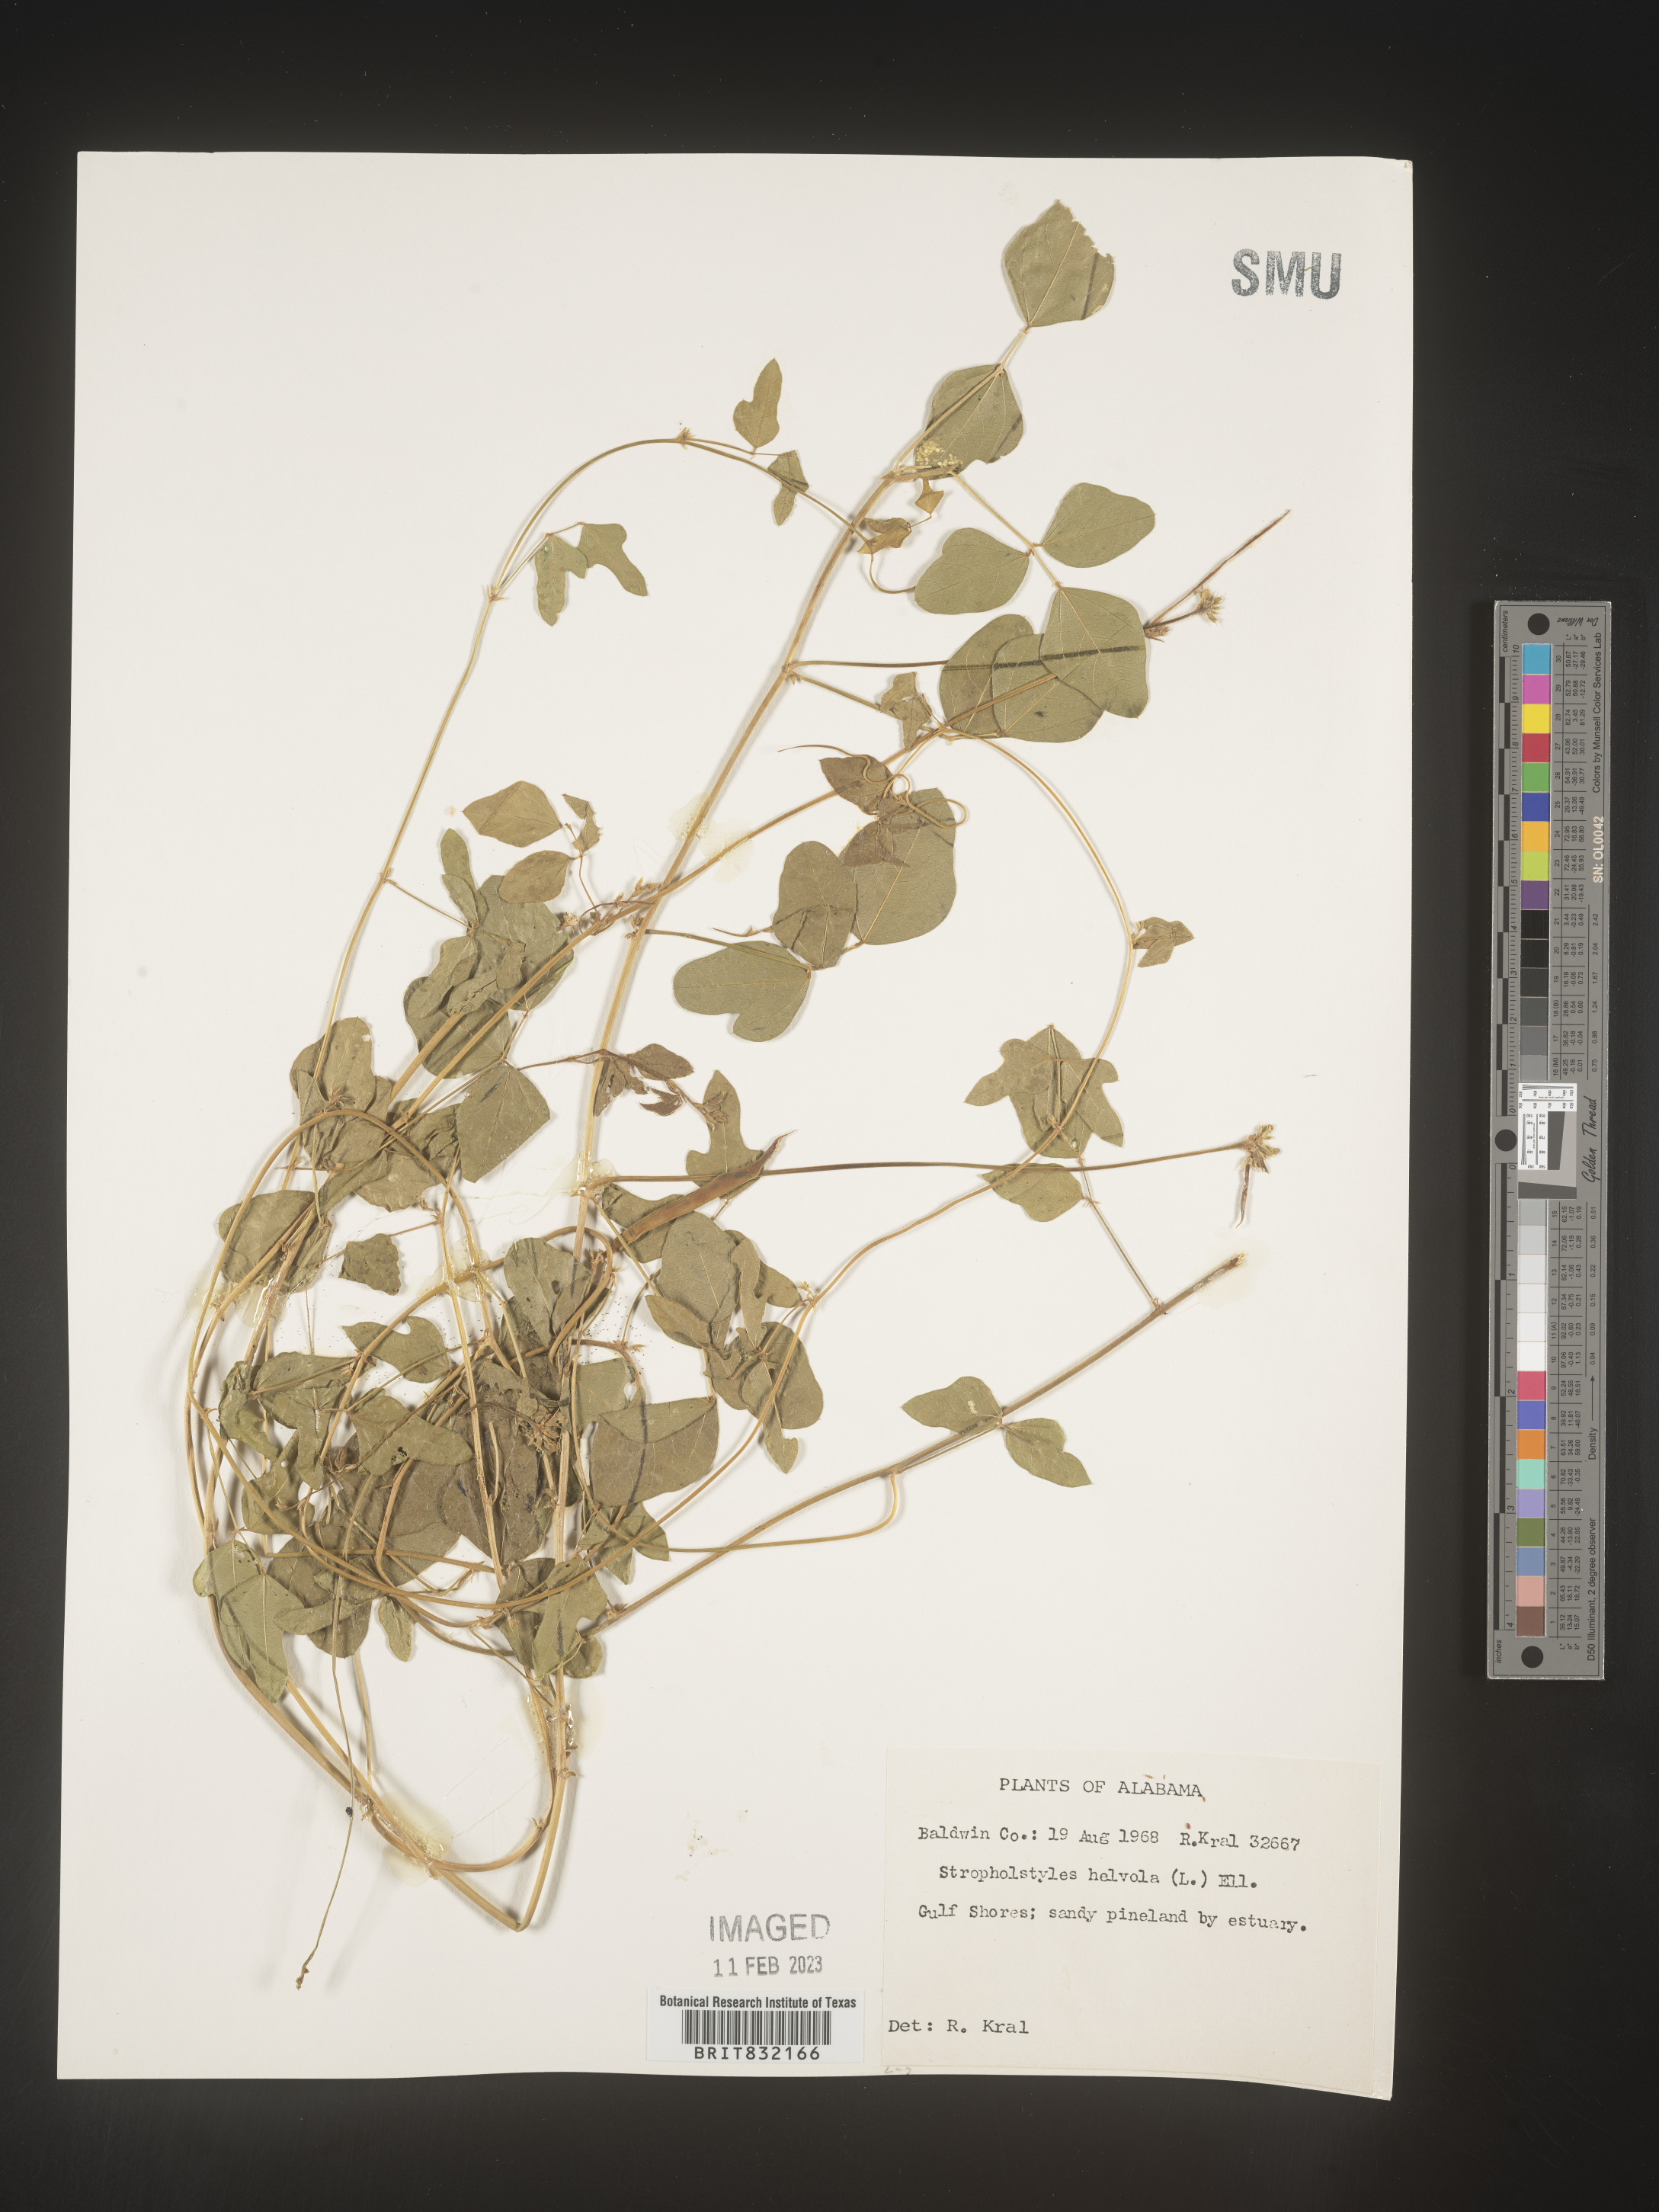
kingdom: Plantae
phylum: Tracheophyta
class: Magnoliopsida
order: Fabales
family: Fabaceae
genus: Strophostyles
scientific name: Strophostyles helvola
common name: Trailing wild bean
